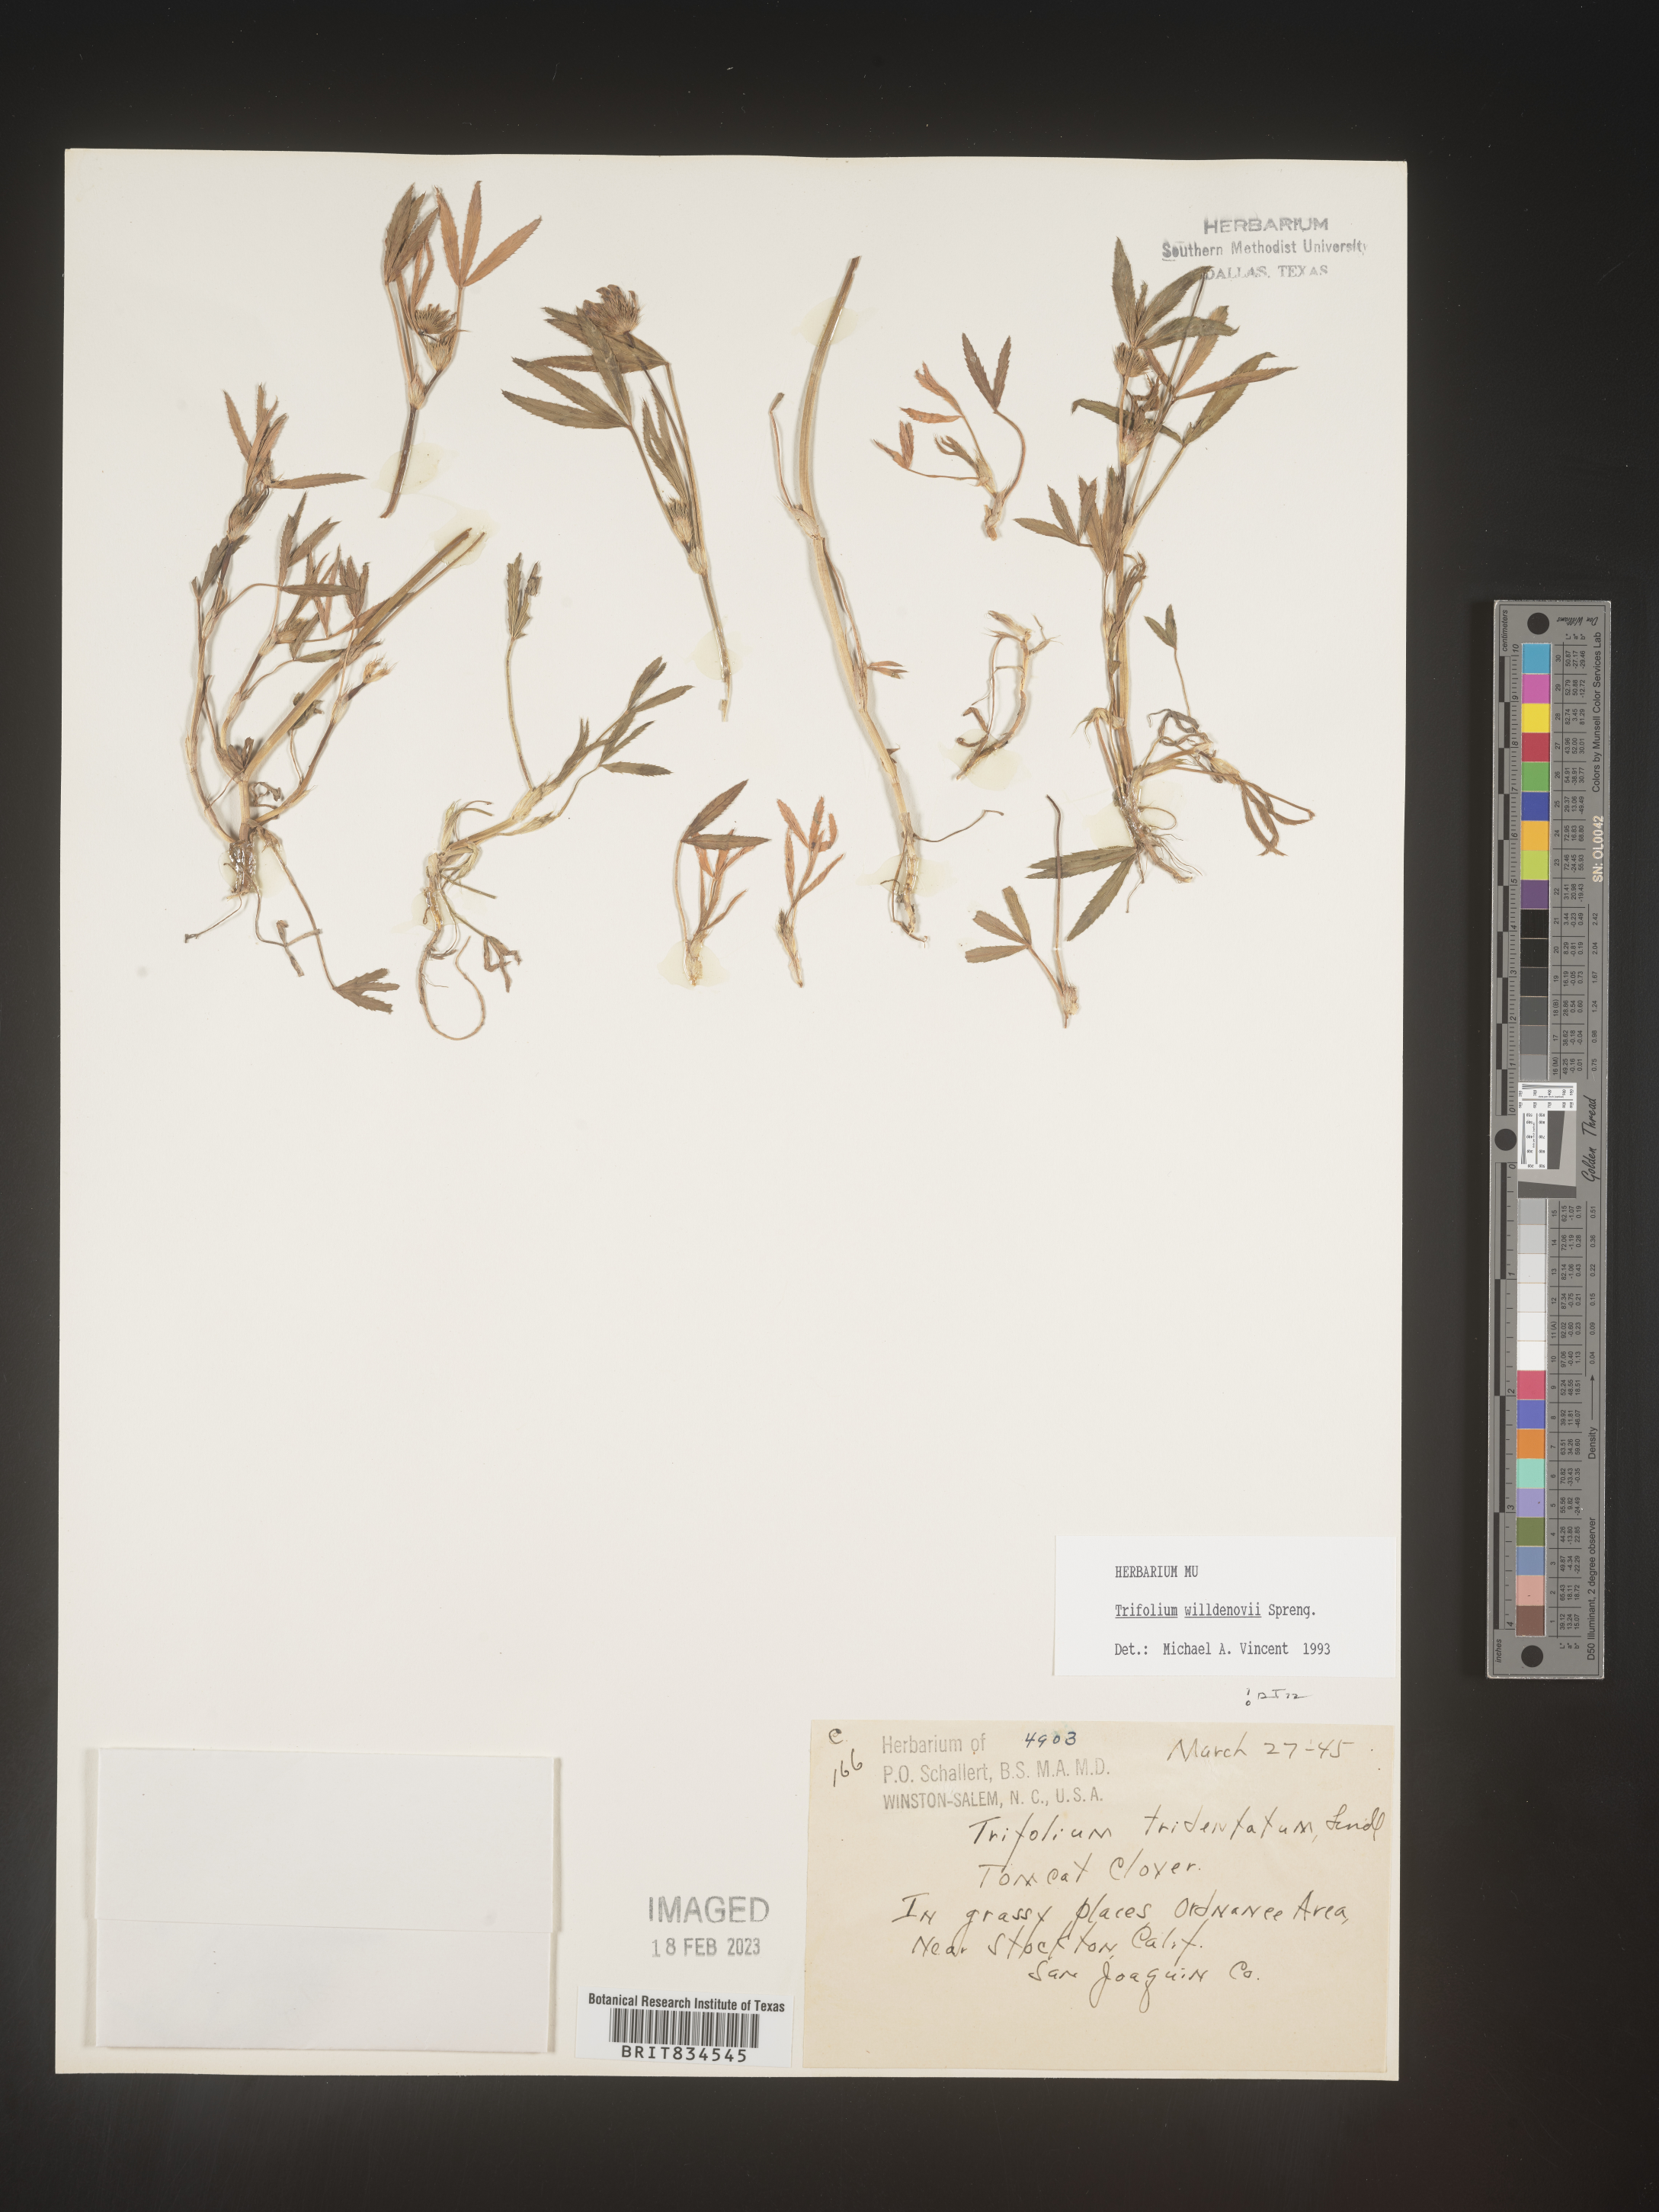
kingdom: Plantae
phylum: Tracheophyta
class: Magnoliopsida
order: Fabales
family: Fabaceae
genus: Trifolium
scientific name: Trifolium
